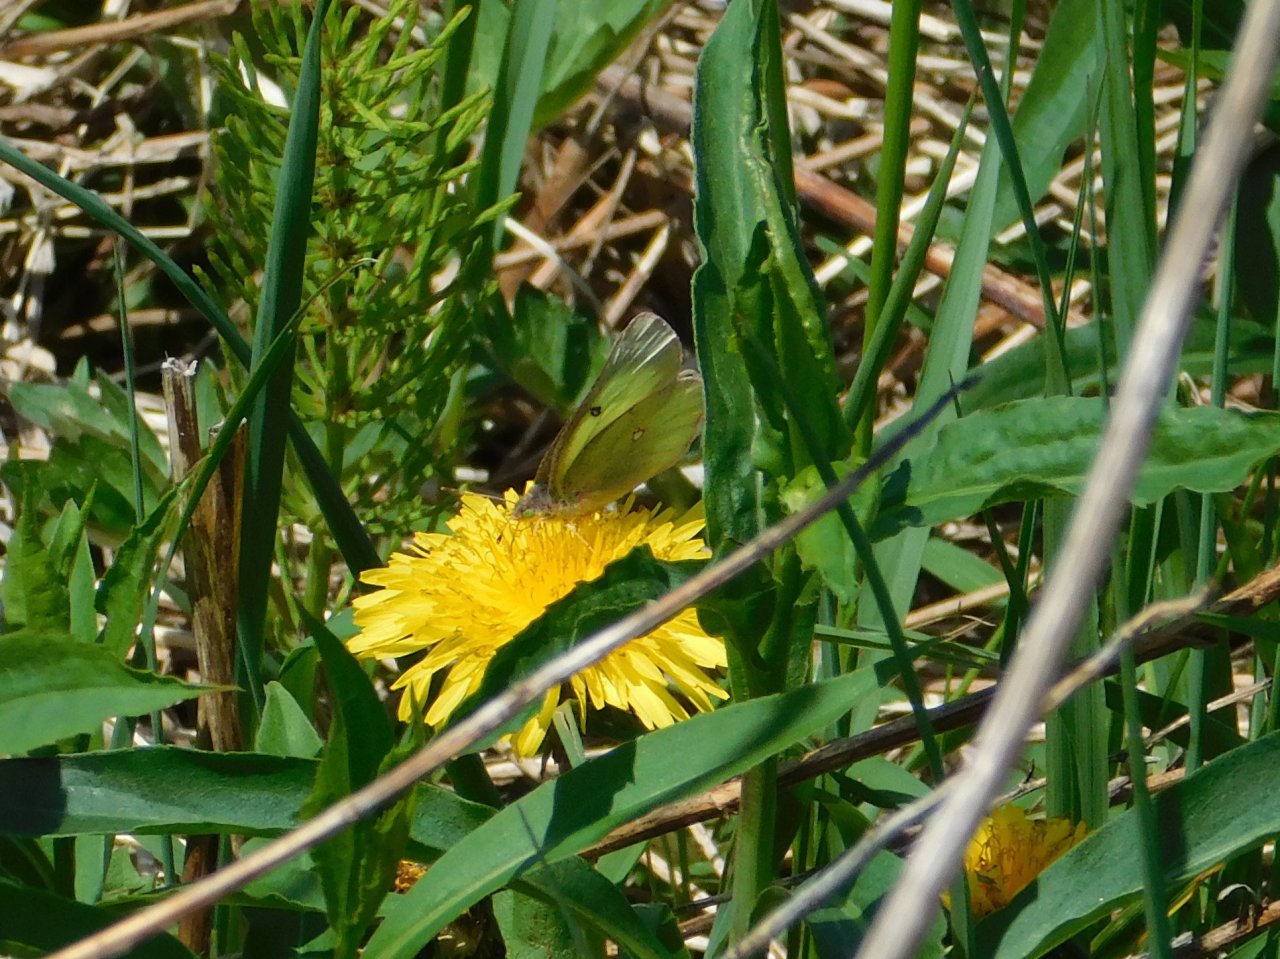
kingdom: Animalia
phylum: Arthropoda
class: Insecta
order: Lepidoptera
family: Pieridae
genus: Colias
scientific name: Colias philodice
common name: Clouded Sulphur
